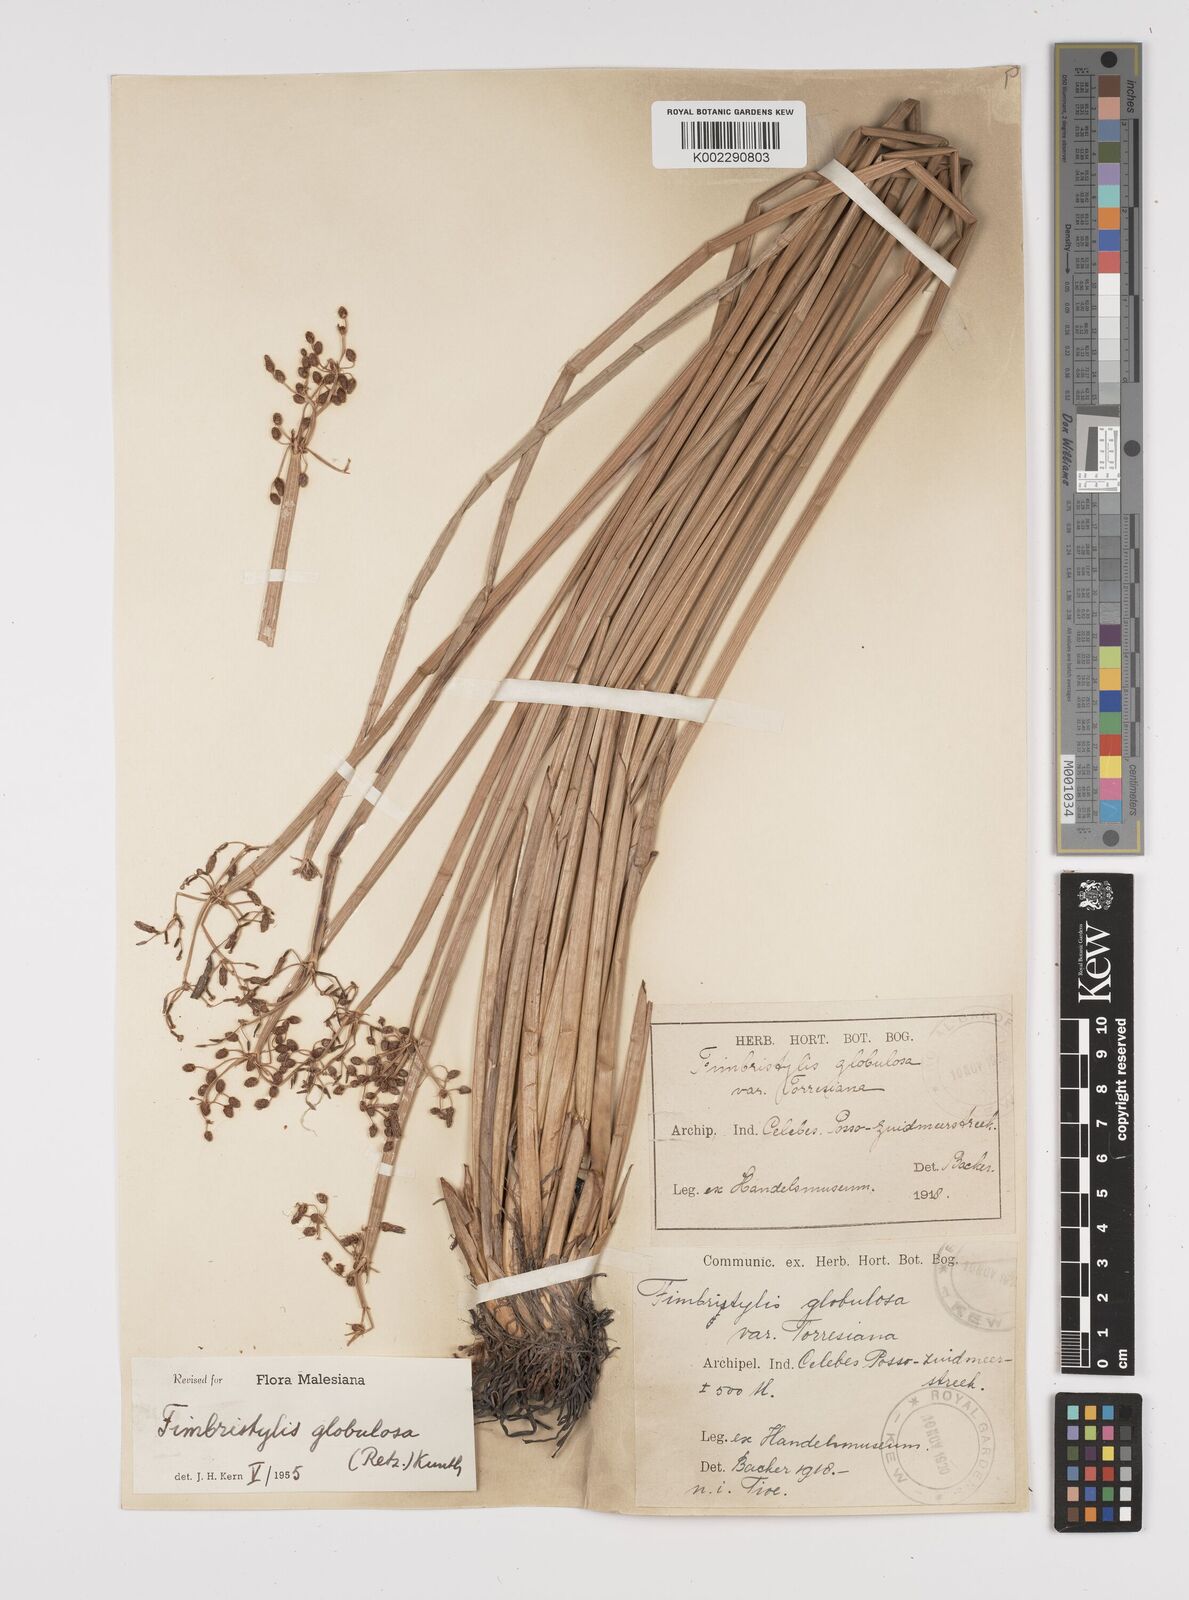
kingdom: Plantae
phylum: Tracheophyta
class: Liliopsida
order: Poales
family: Cyperaceae
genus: Fimbristylis
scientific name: Fimbristylis umbellaris
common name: Globular fimbristylis
